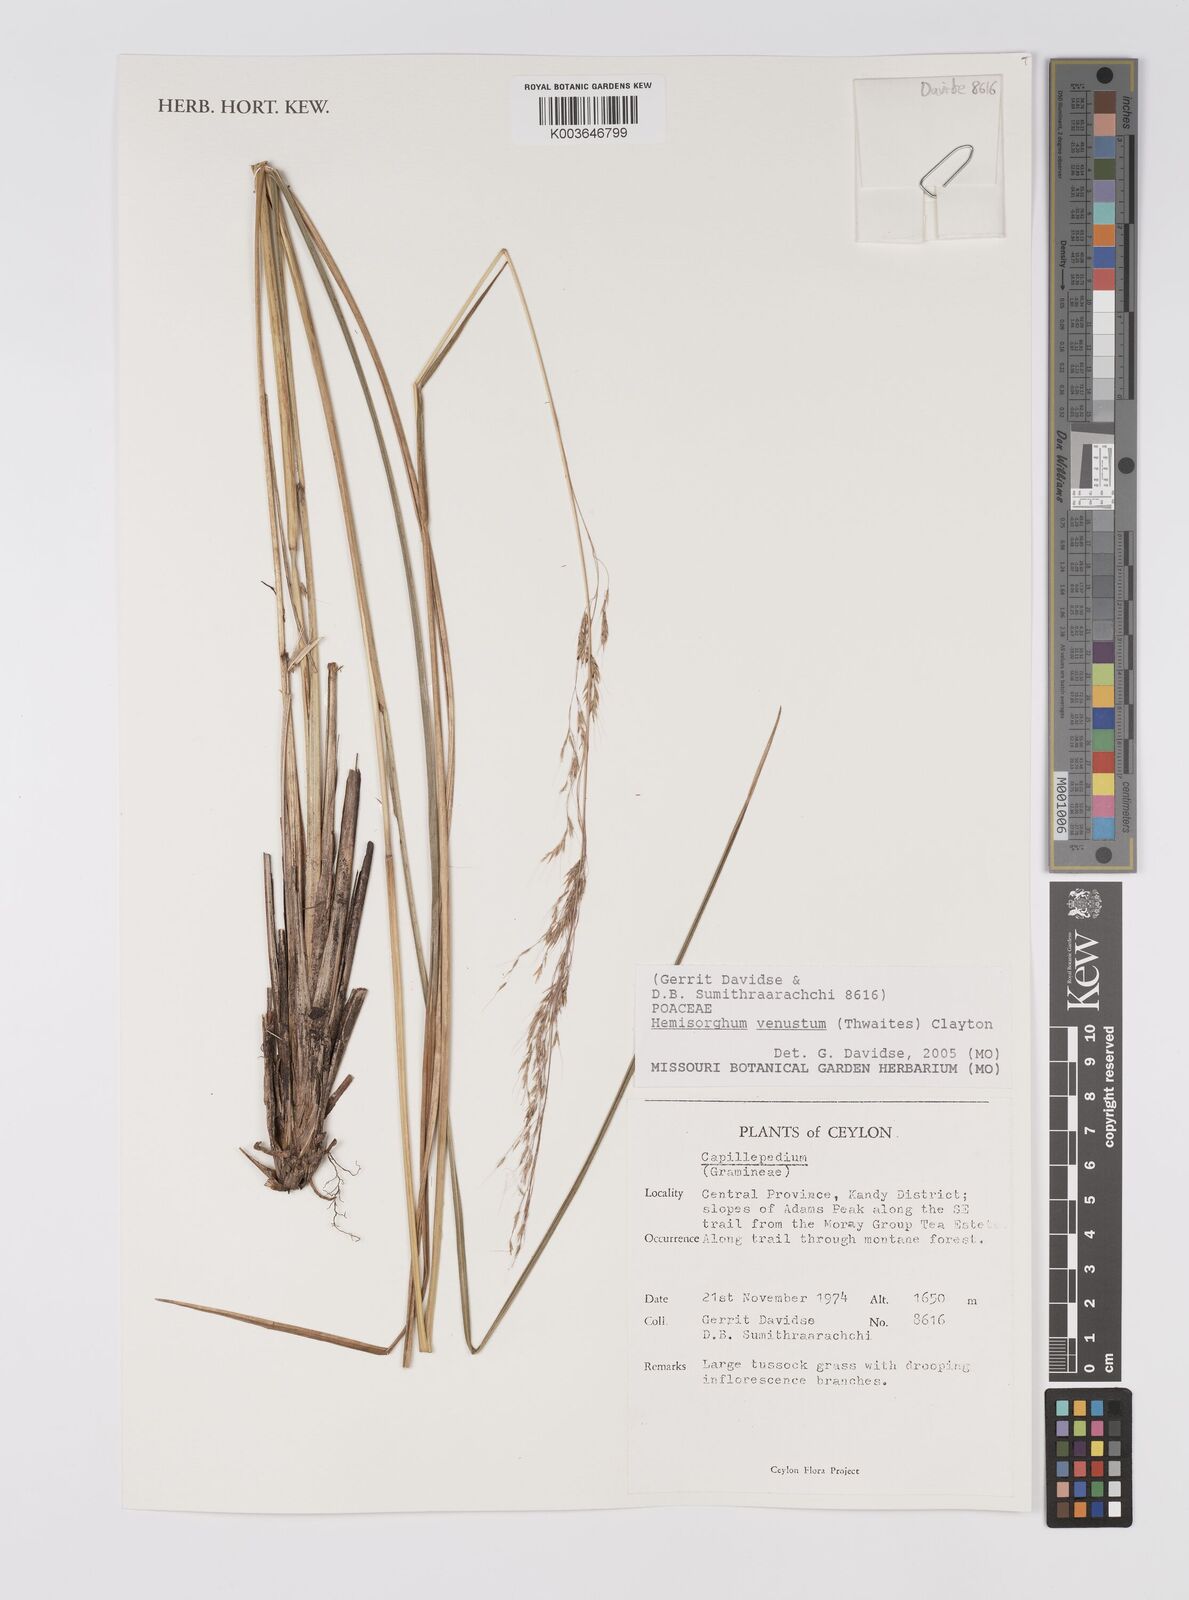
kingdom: Plantae
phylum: Tracheophyta
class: Liliopsida
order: Poales
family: Poaceae
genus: Hemisorghum
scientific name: Hemisorghum venustum
